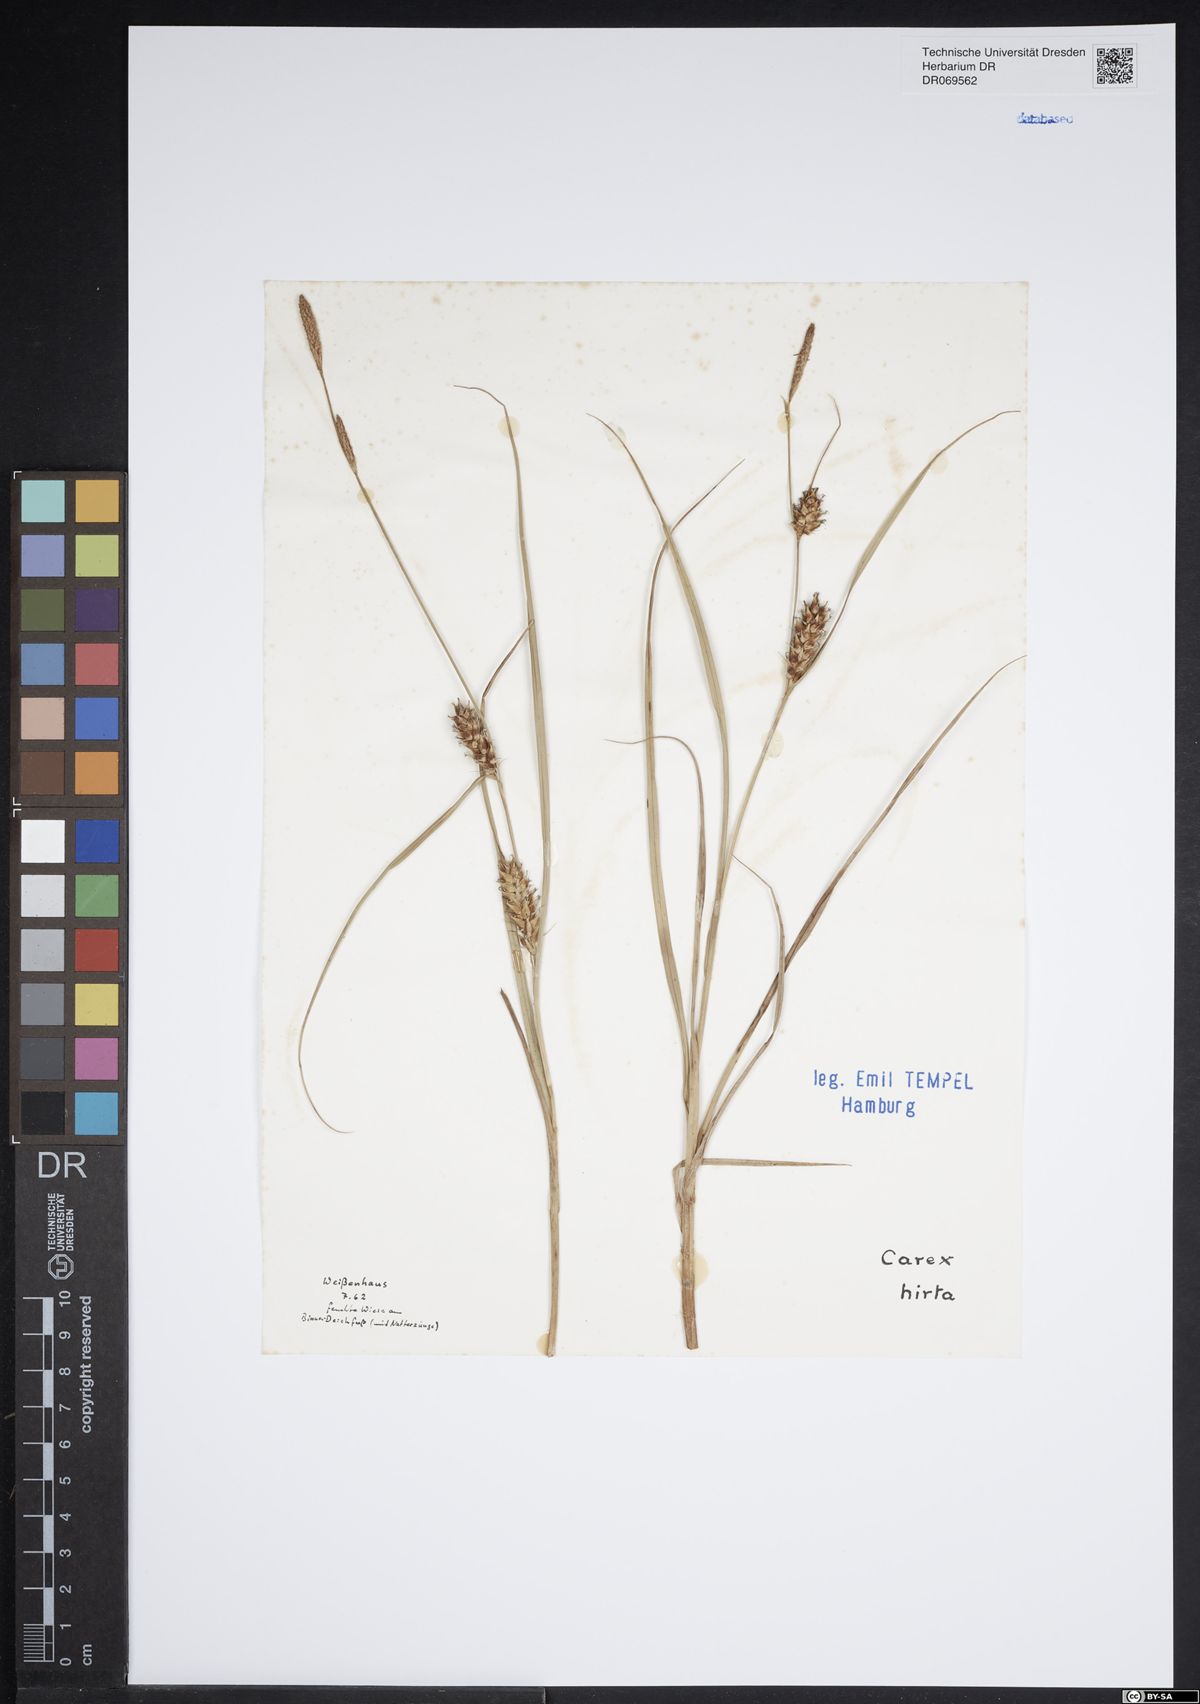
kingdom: Plantae
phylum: Tracheophyta
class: Liliopsida
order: Poales
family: Cyperaceae
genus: Carex
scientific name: Carex hirta
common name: Hairy sedge
